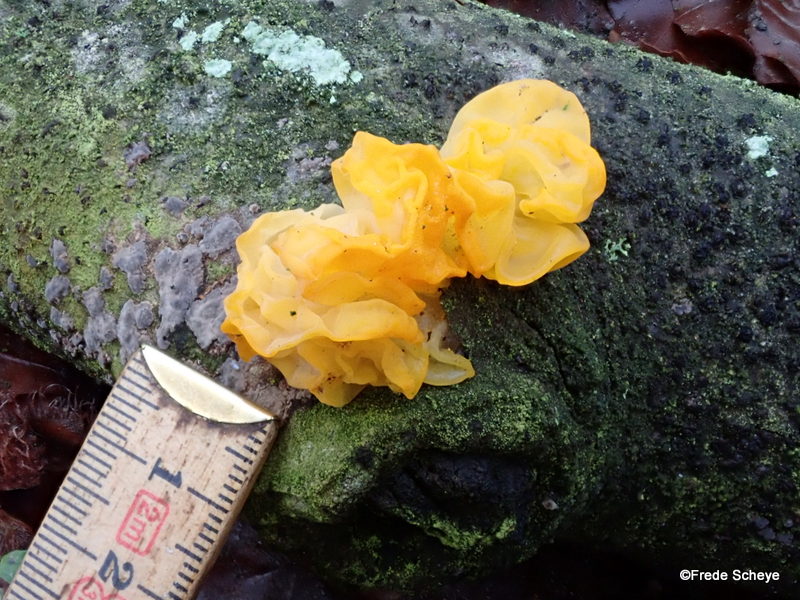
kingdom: Fungi
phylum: Basidiomycota
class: Tremellomycetes
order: Tremellales
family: Tremellaceae
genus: Tremella
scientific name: Tremella mesenterica
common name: gul bævresvamp
